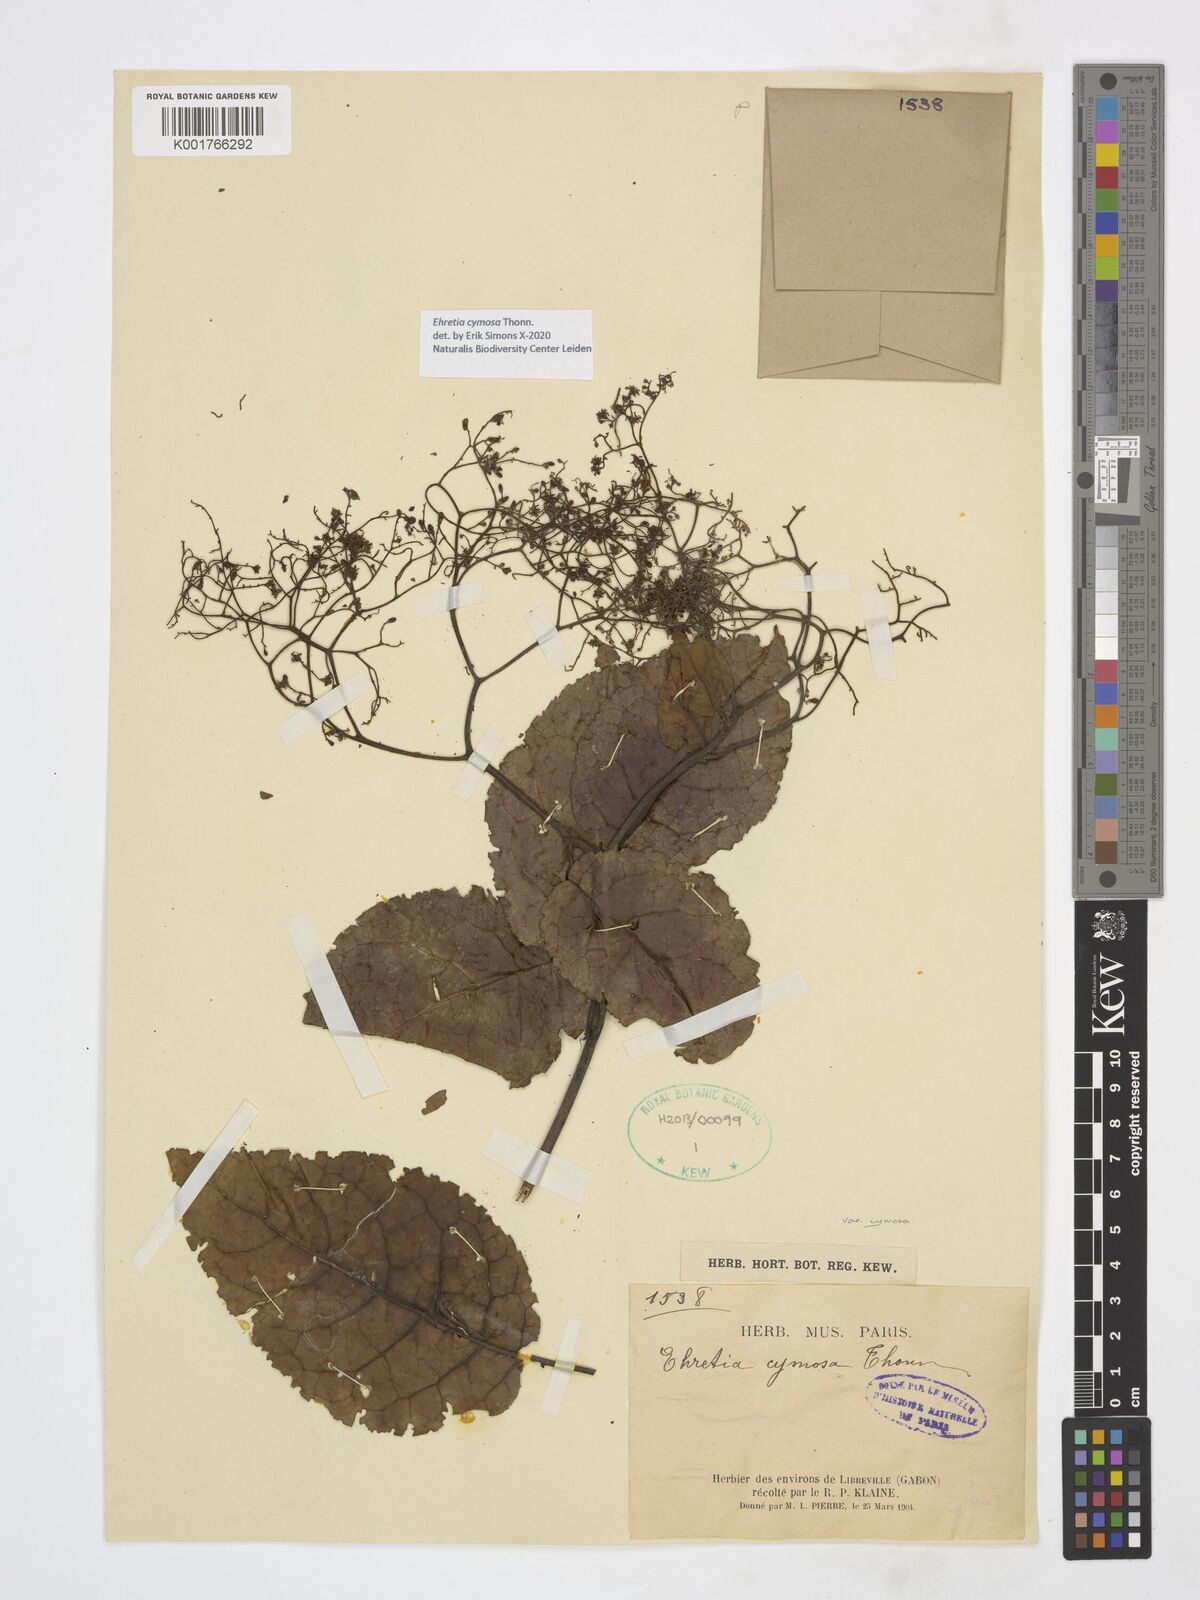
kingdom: Plantae
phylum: Tracheophyta
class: Magnoliopsida
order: Boraginales
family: Ehretiaceae
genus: Ehretia
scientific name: Ehretia cymosa
